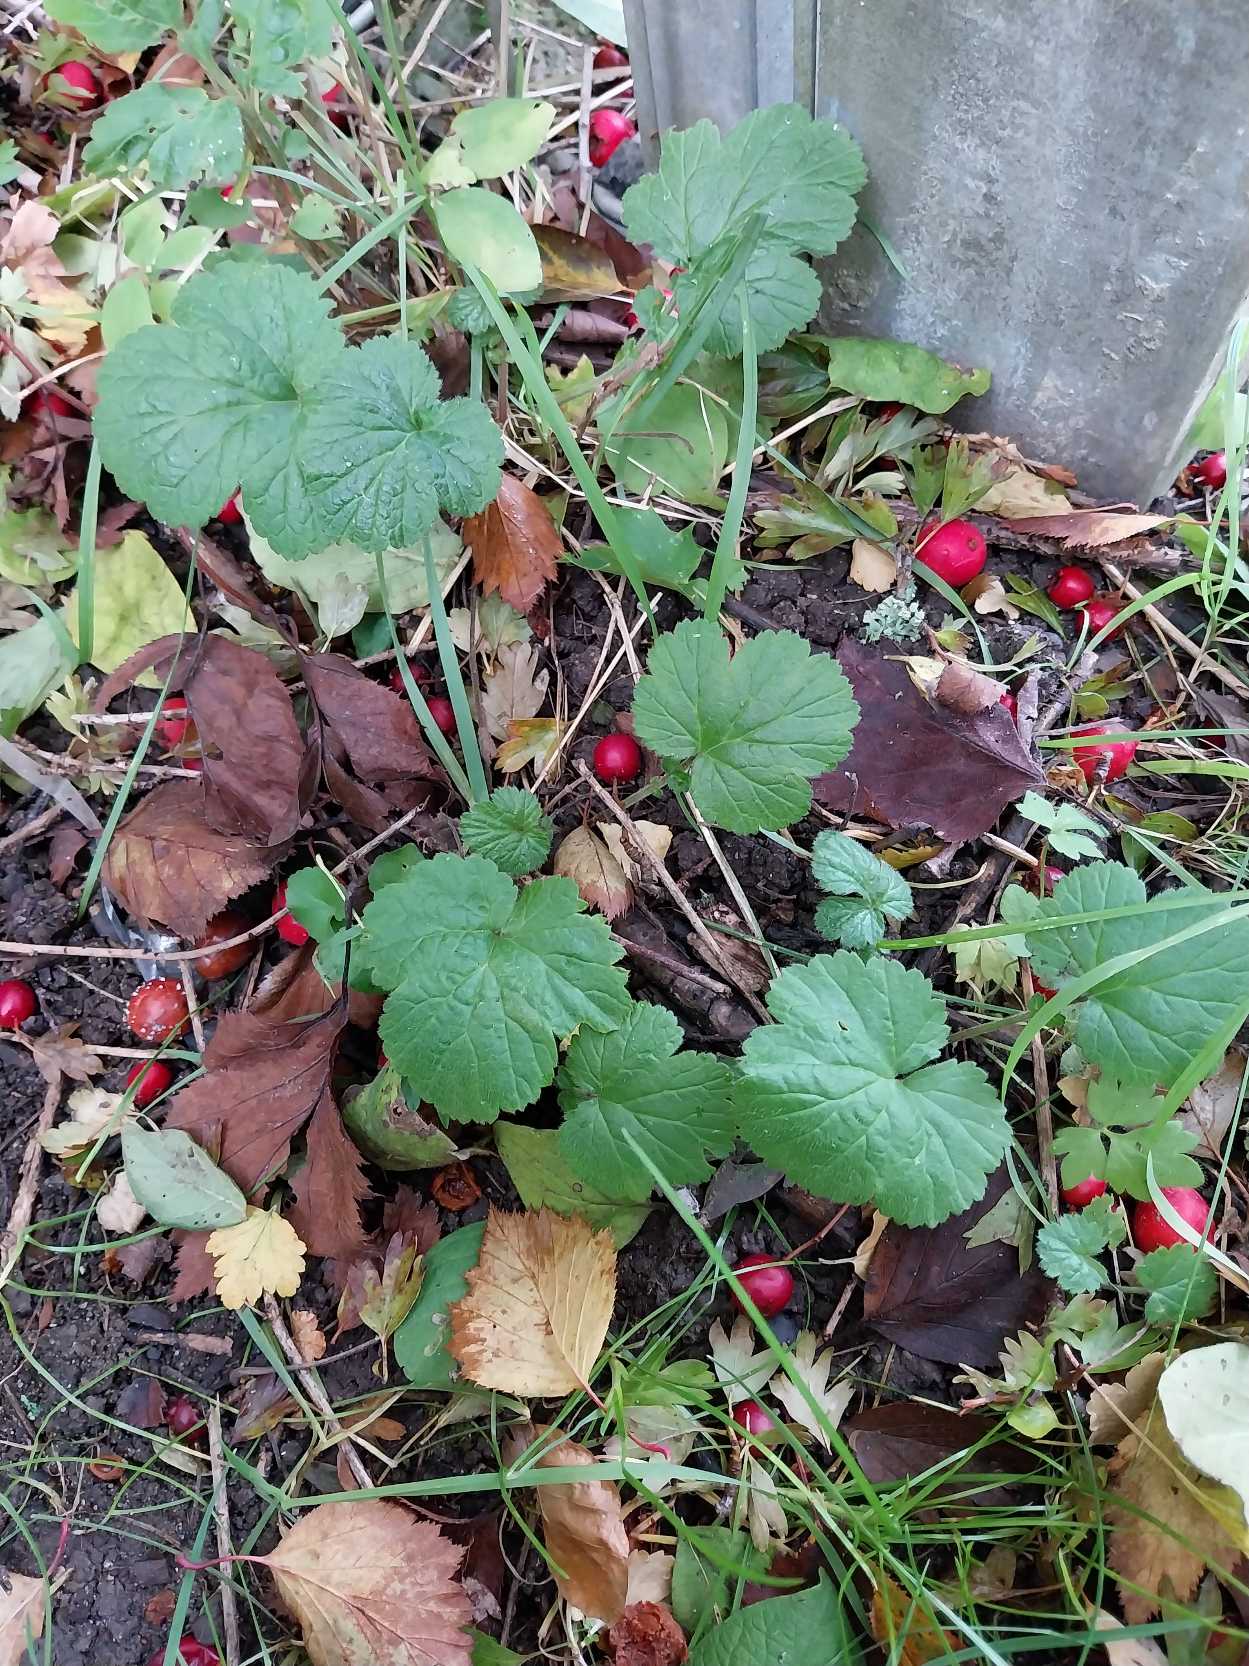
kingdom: Plantae
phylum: Tracheophyta
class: Magnoliopsida
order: Rosales
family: Rosaceae
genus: Geum
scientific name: Geum urbanum
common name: Feber-nellikerod
